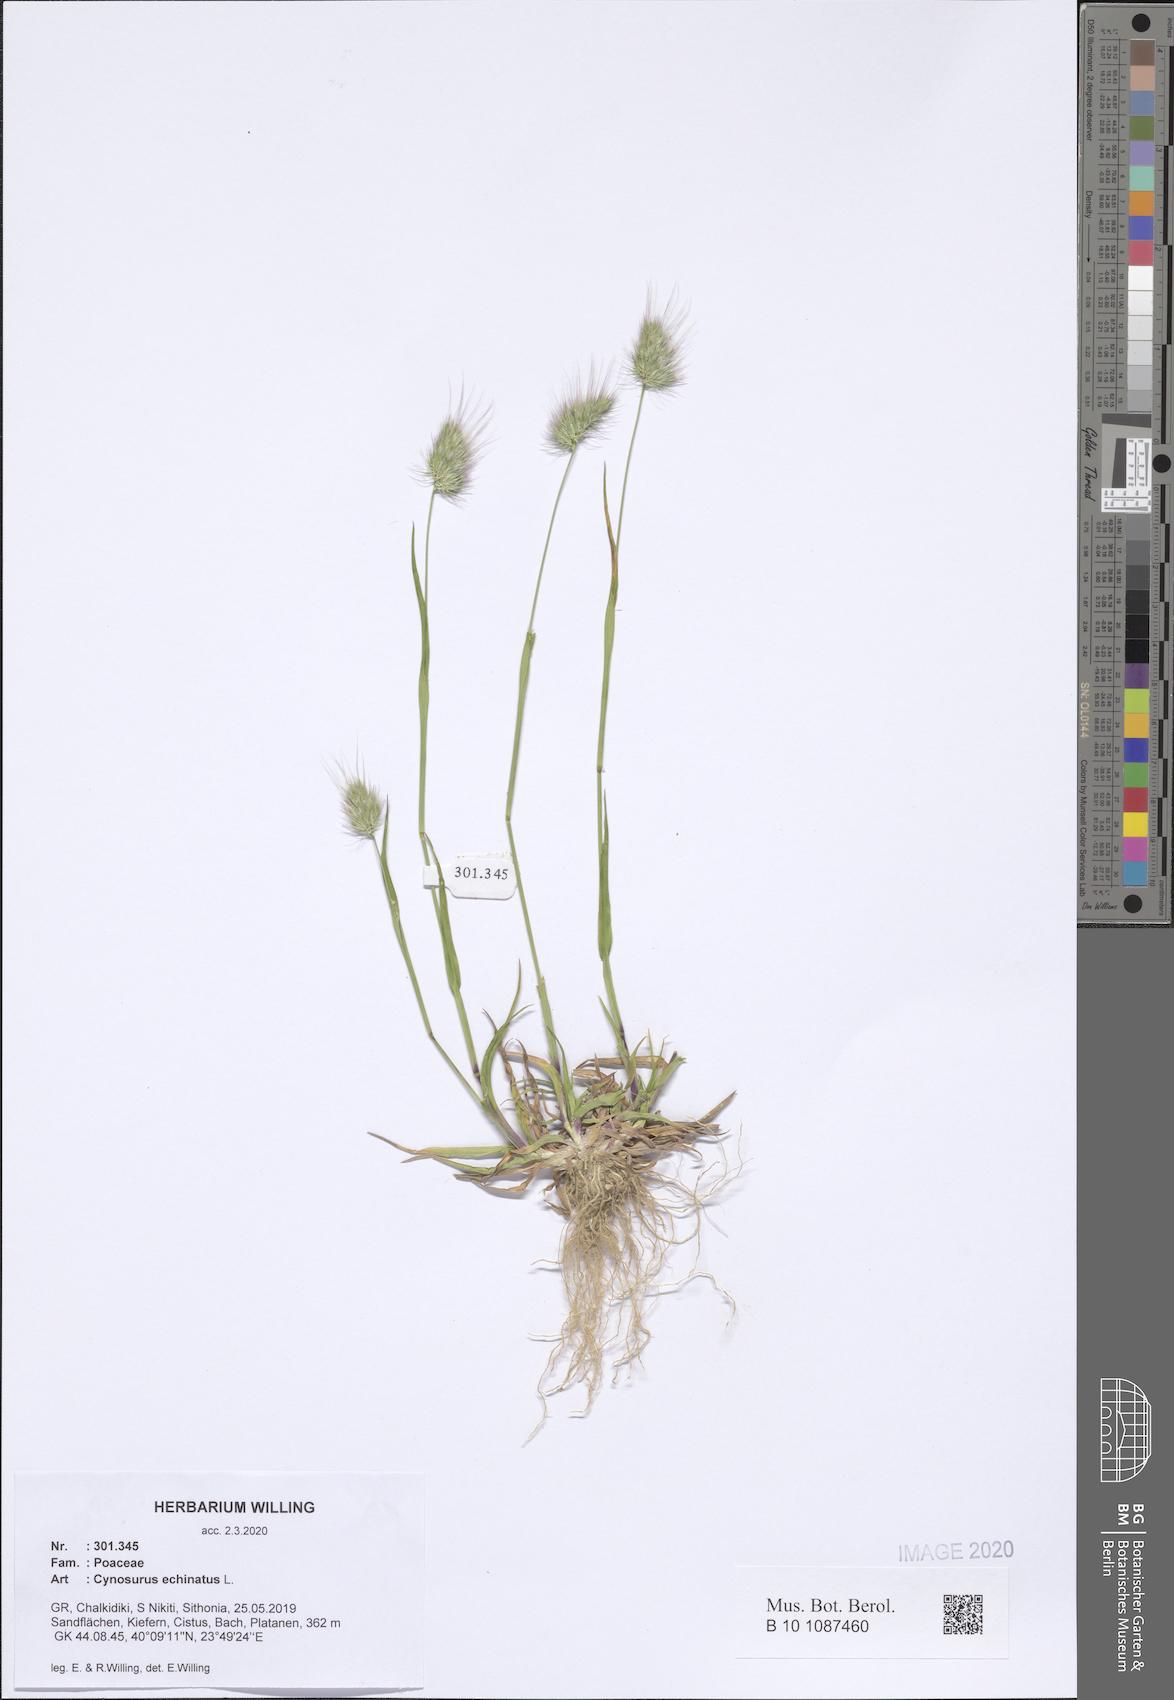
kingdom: Plantae
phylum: Tracheophyta
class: Liliopsida
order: Poales
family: Poaceae
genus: Cynosurus
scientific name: Cynosurus echinatus
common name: Rough dog's-tail
